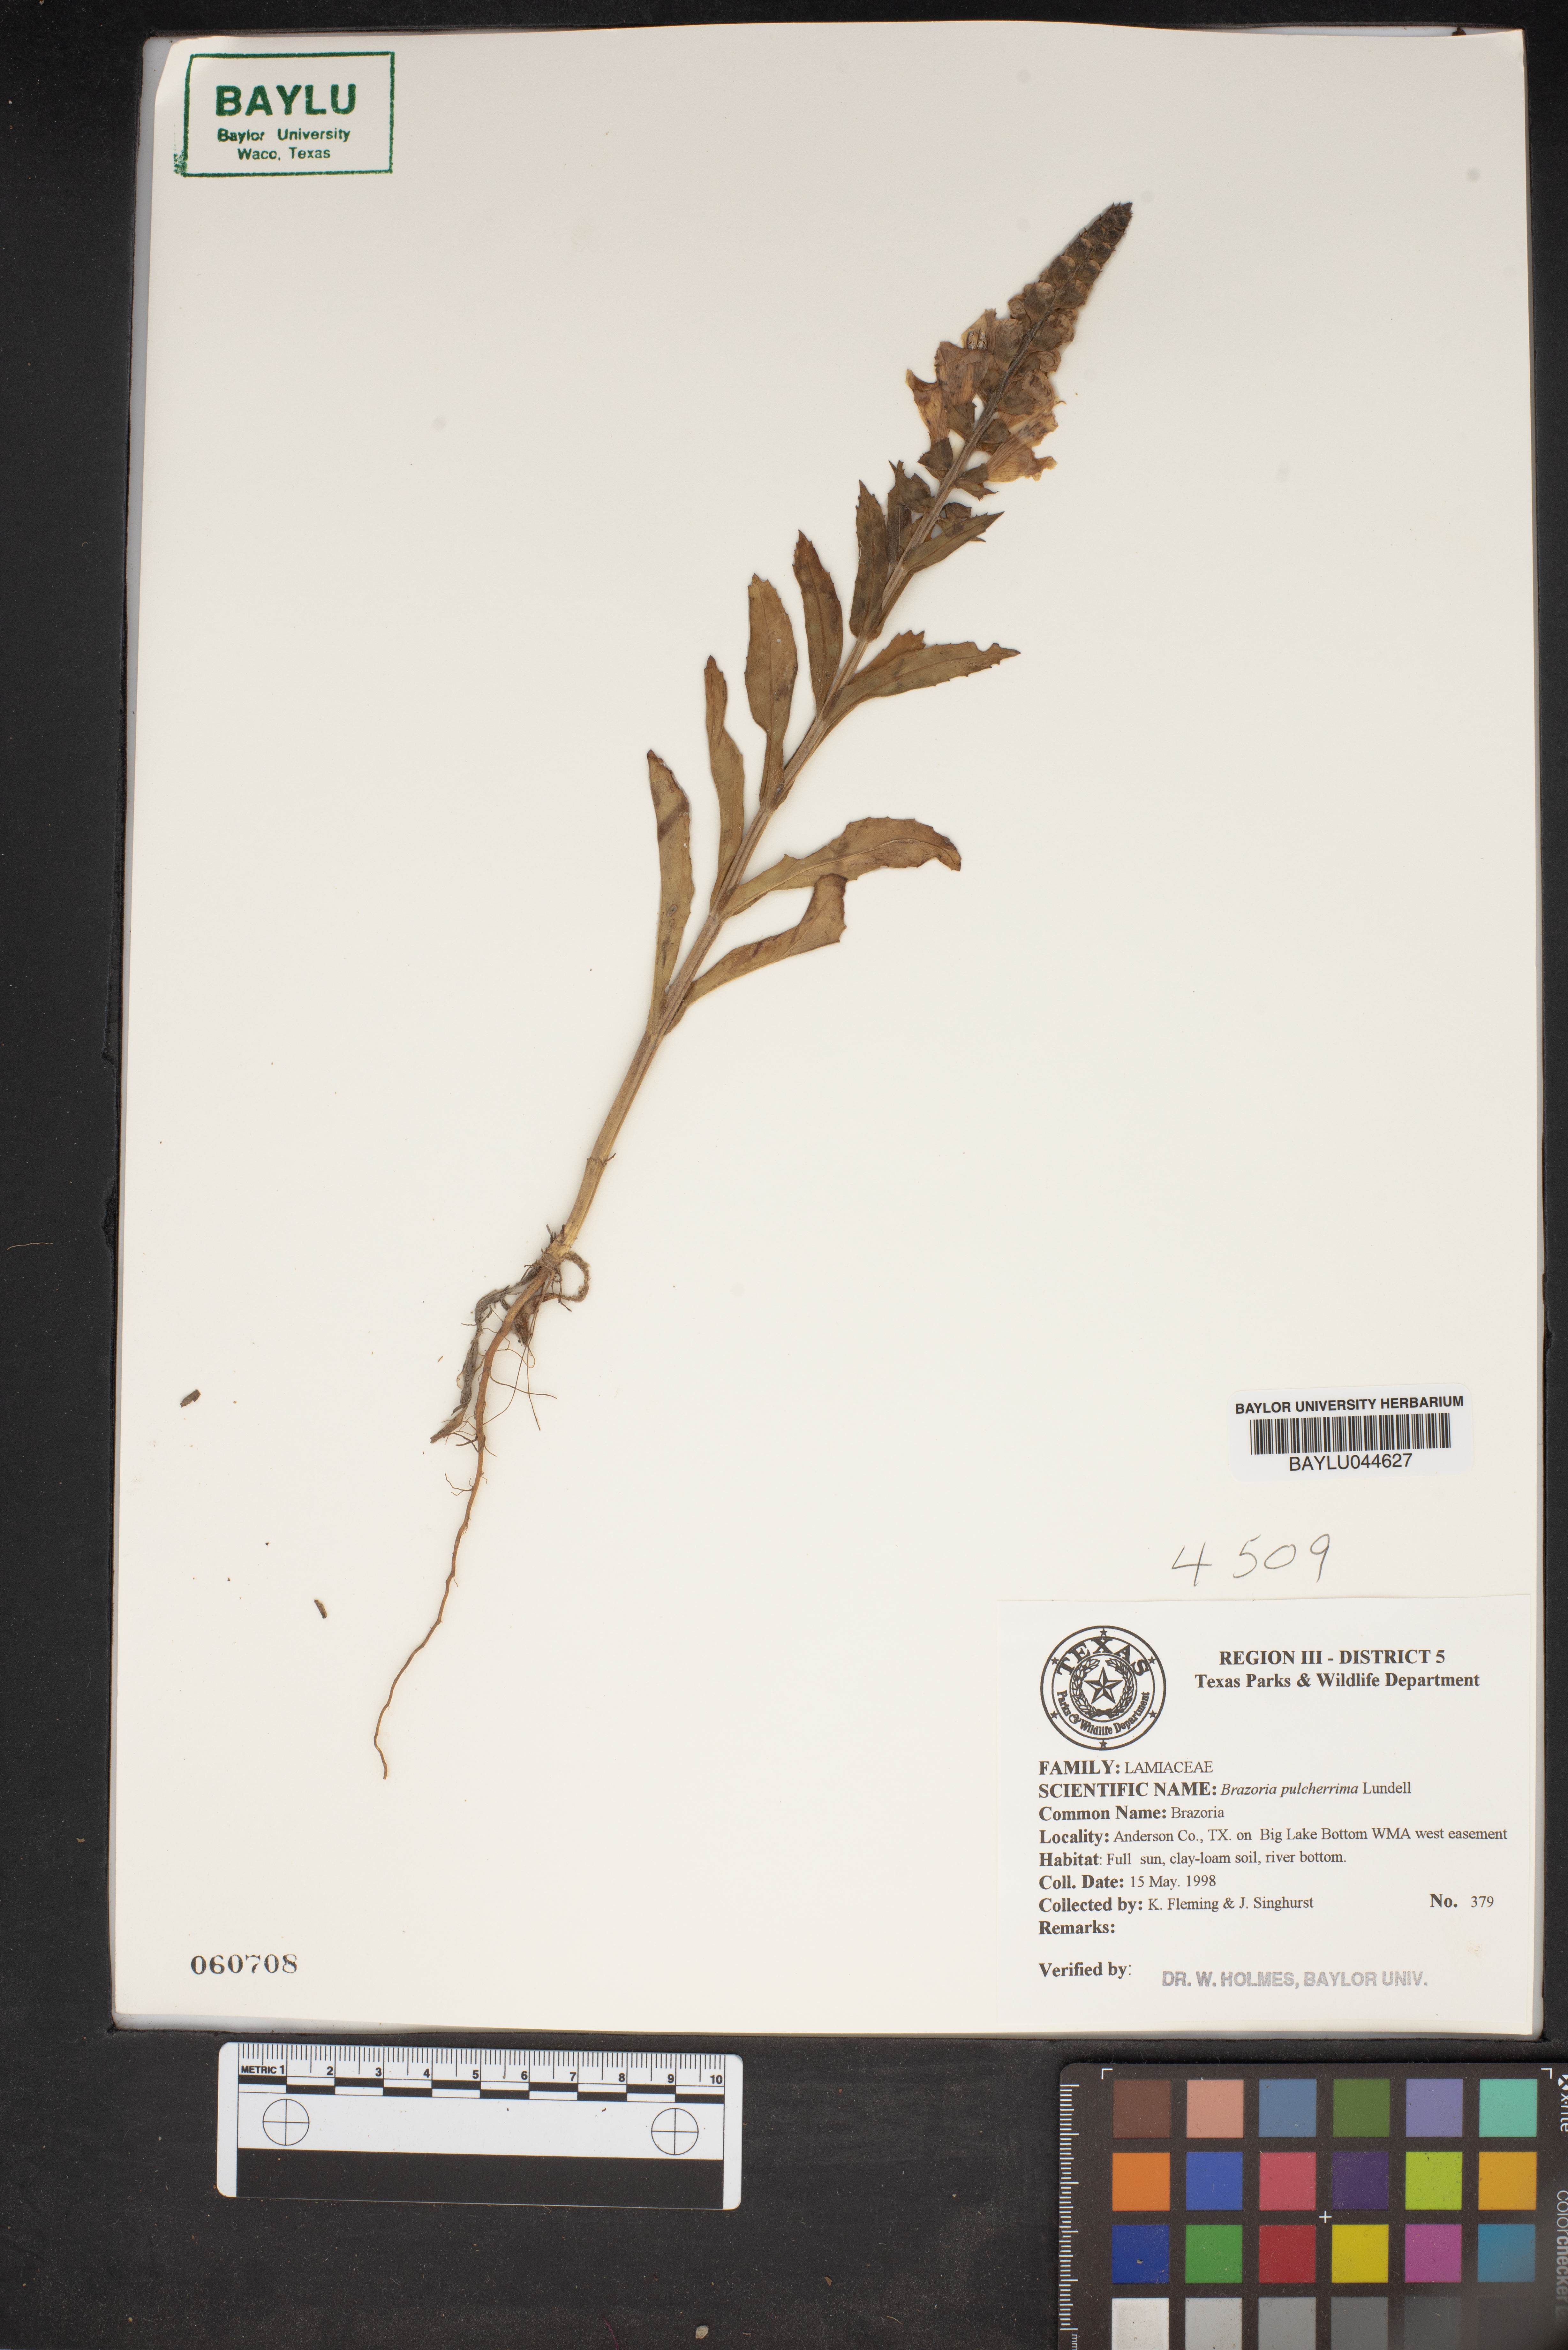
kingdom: Plantae
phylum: Tracheophyta
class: Magnoliopsida
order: Lamiales
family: Lamiaceae
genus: Brazoria
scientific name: Brazoria truncata
